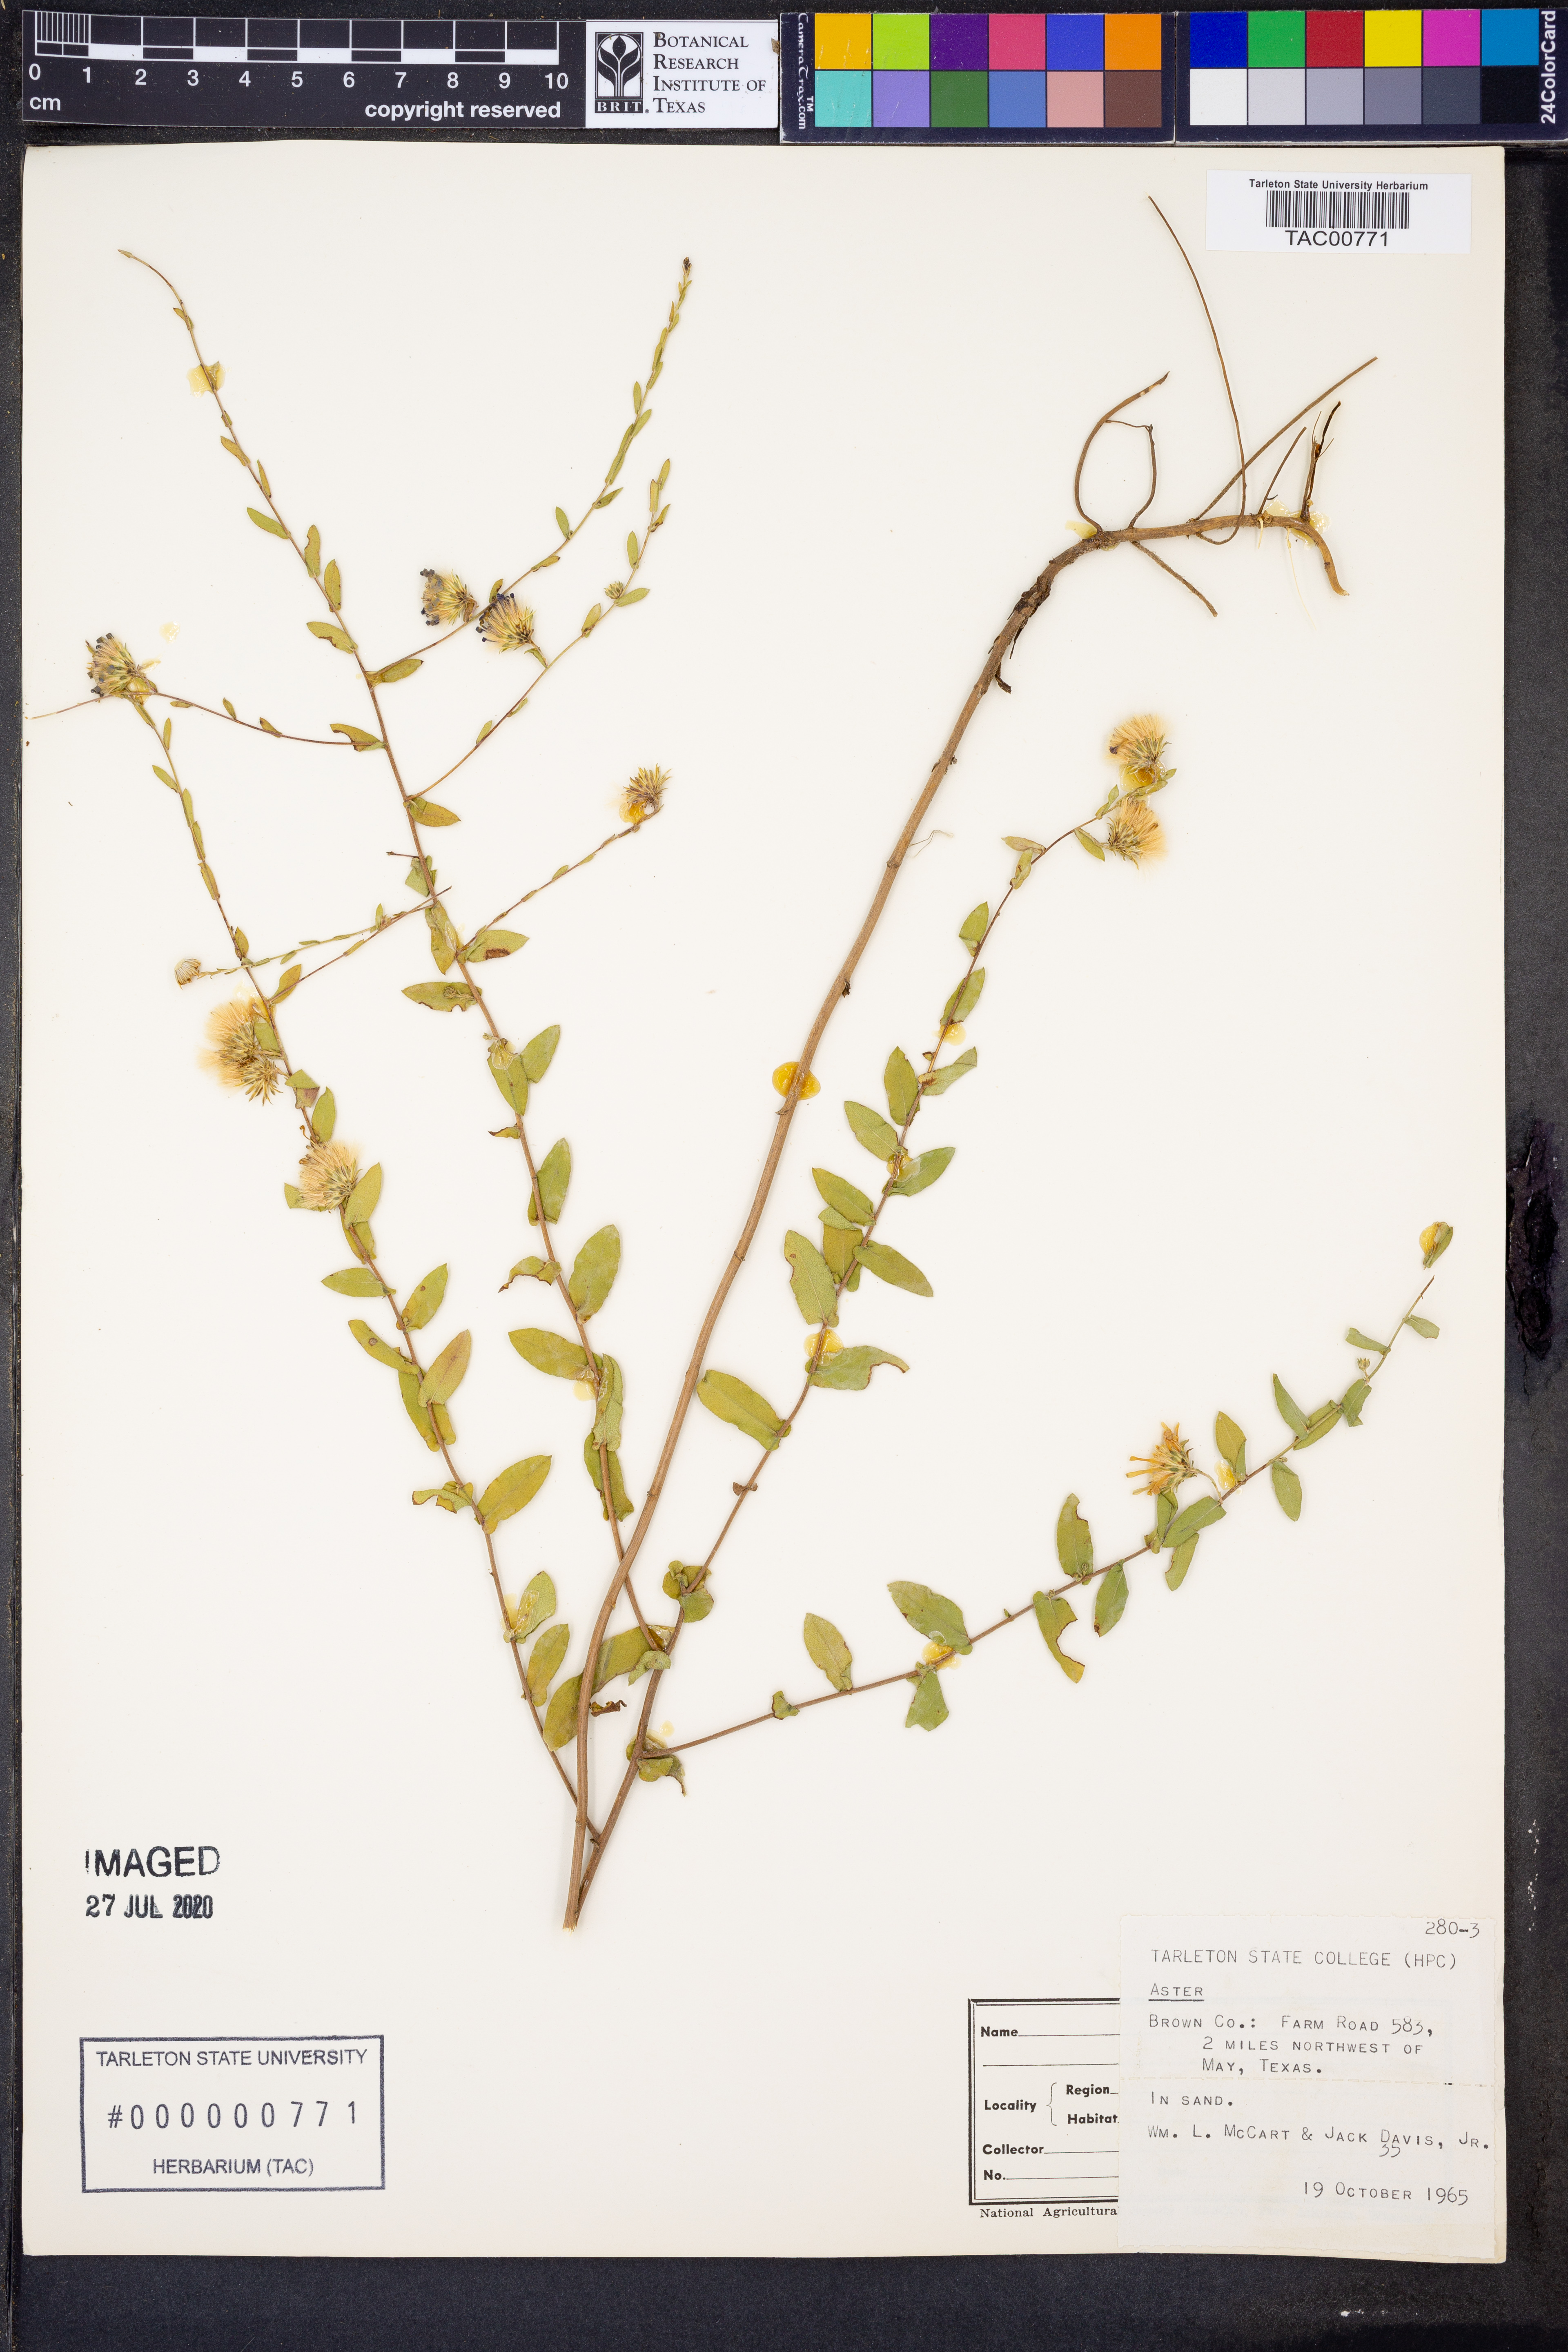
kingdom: Plantae
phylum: Tracheophyta
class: Magnoliopsida
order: Asterales
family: Asteraceae
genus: Aster
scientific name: Aster
